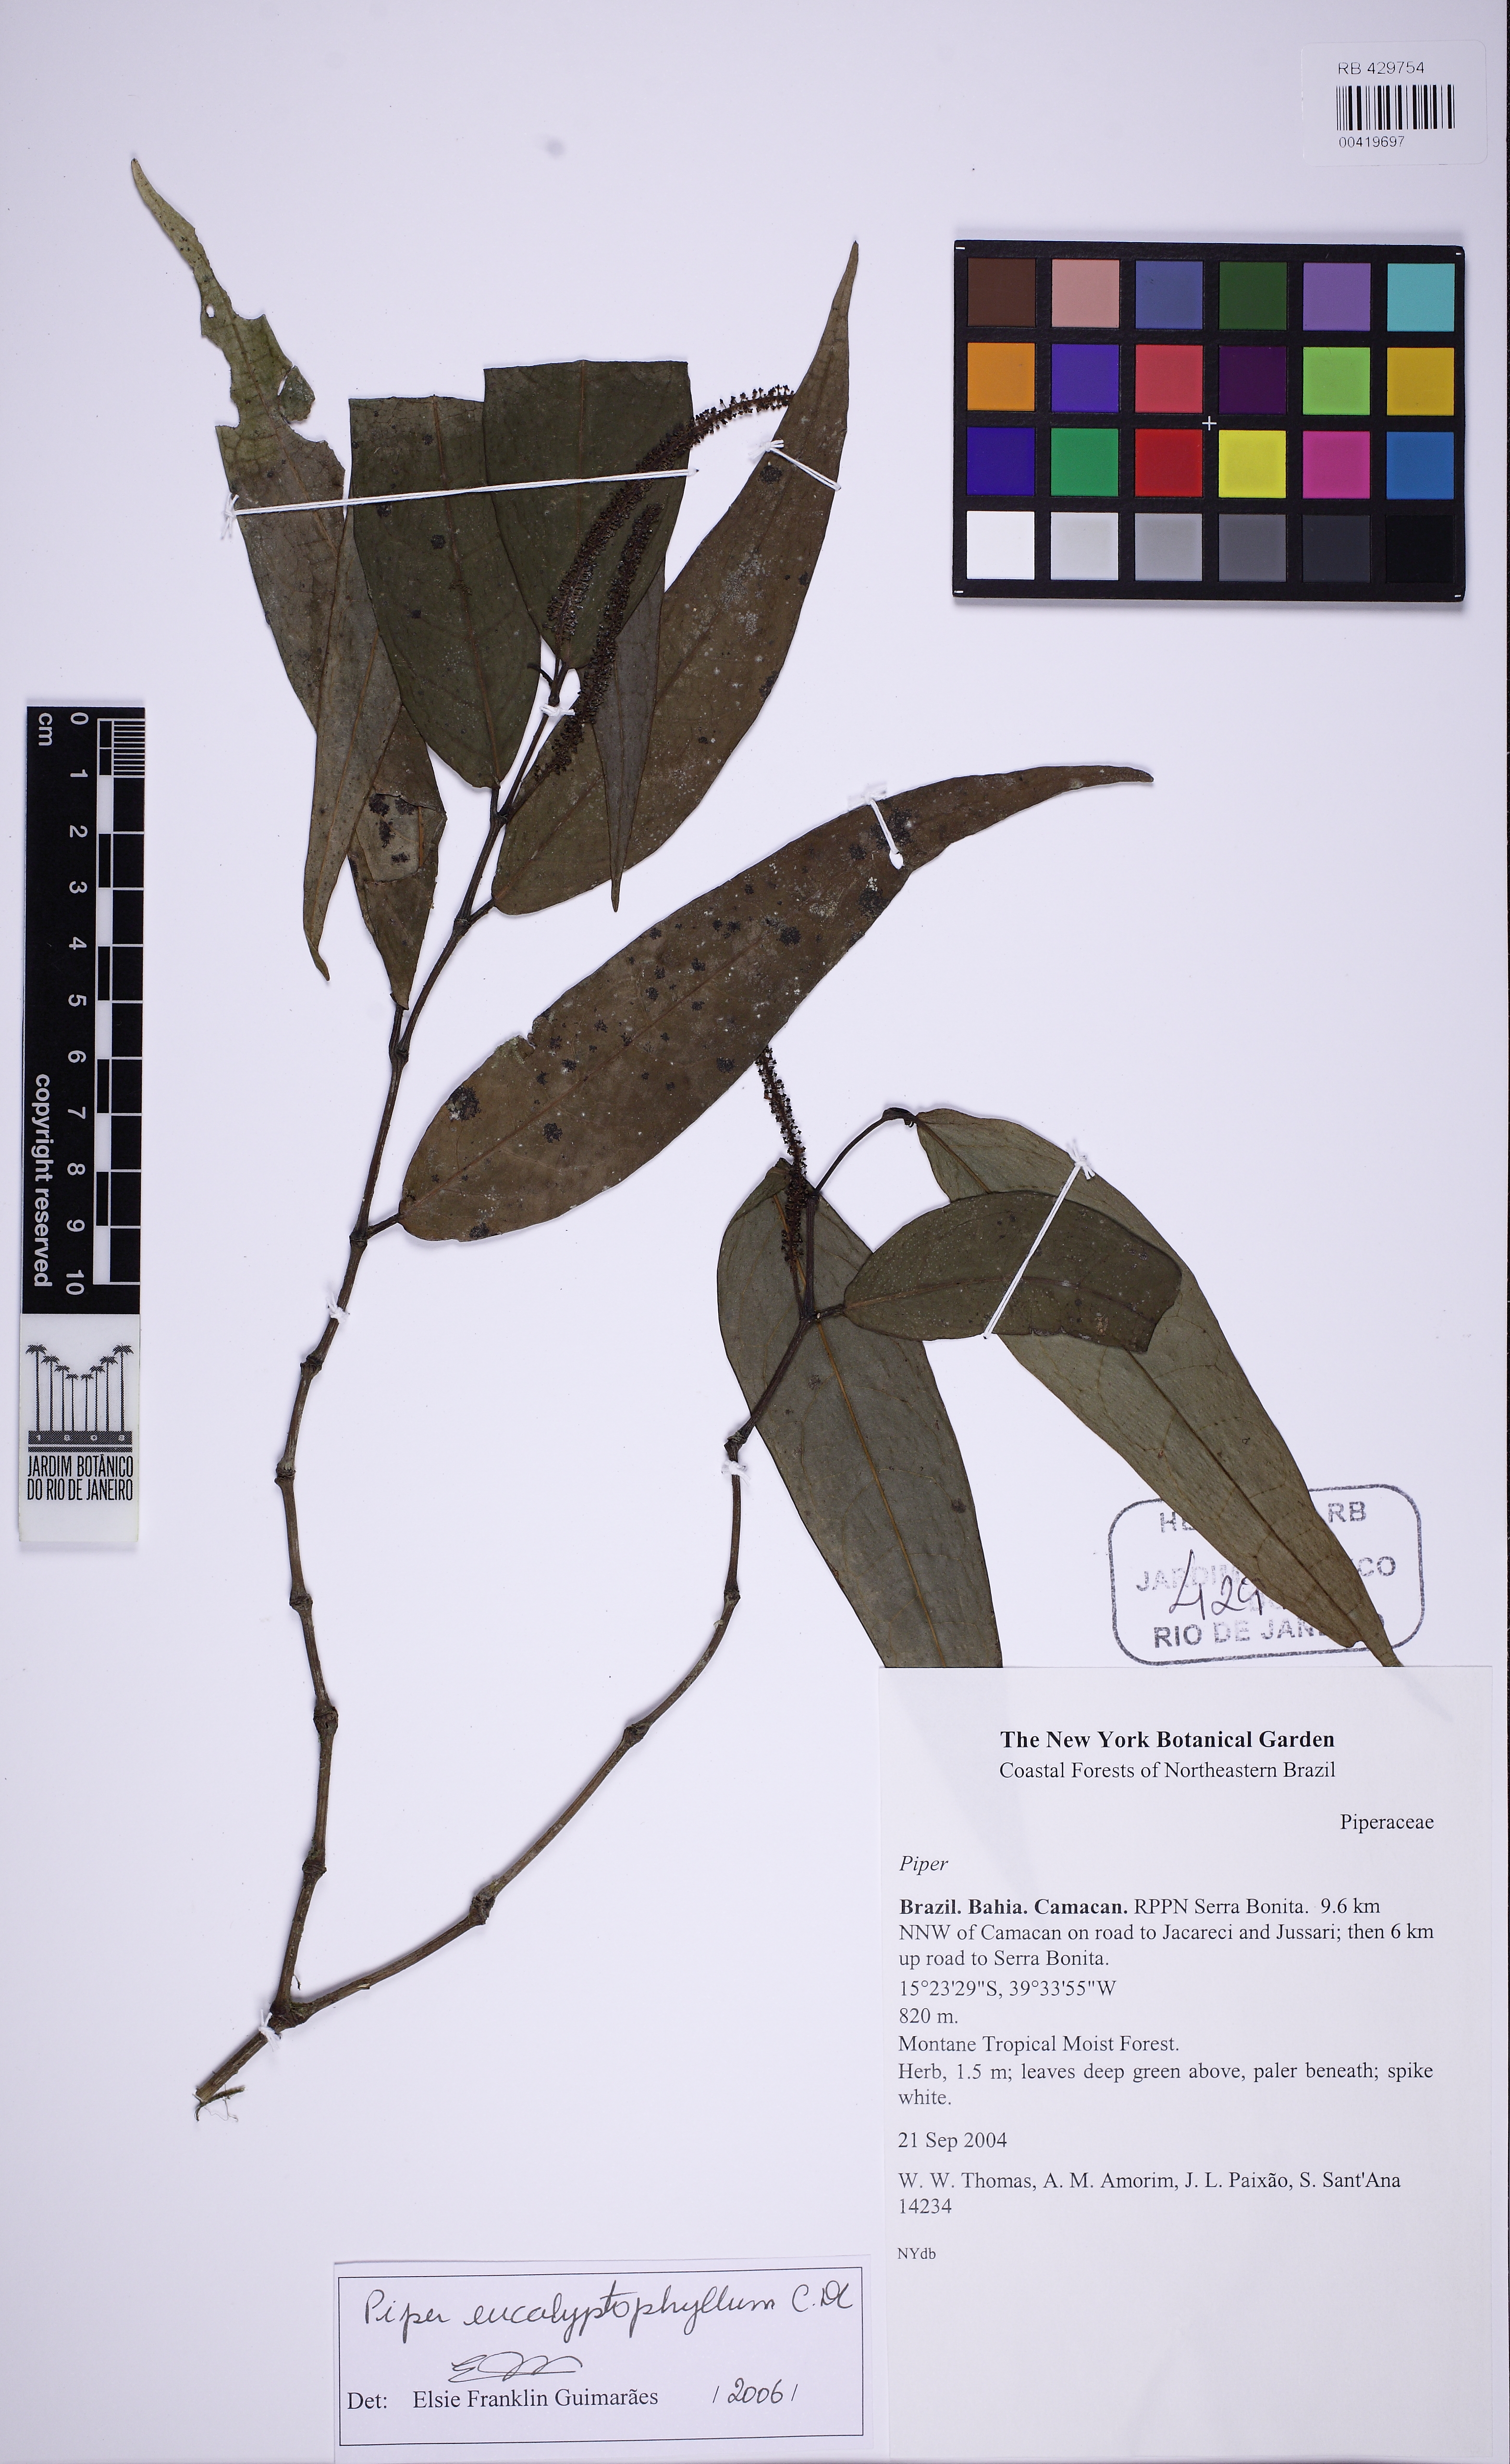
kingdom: Plantae
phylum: Tracheophyta
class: Magnoliopsida
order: Piperales
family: Piperaceae
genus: Piper
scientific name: Piper eucalyptiphyllum
